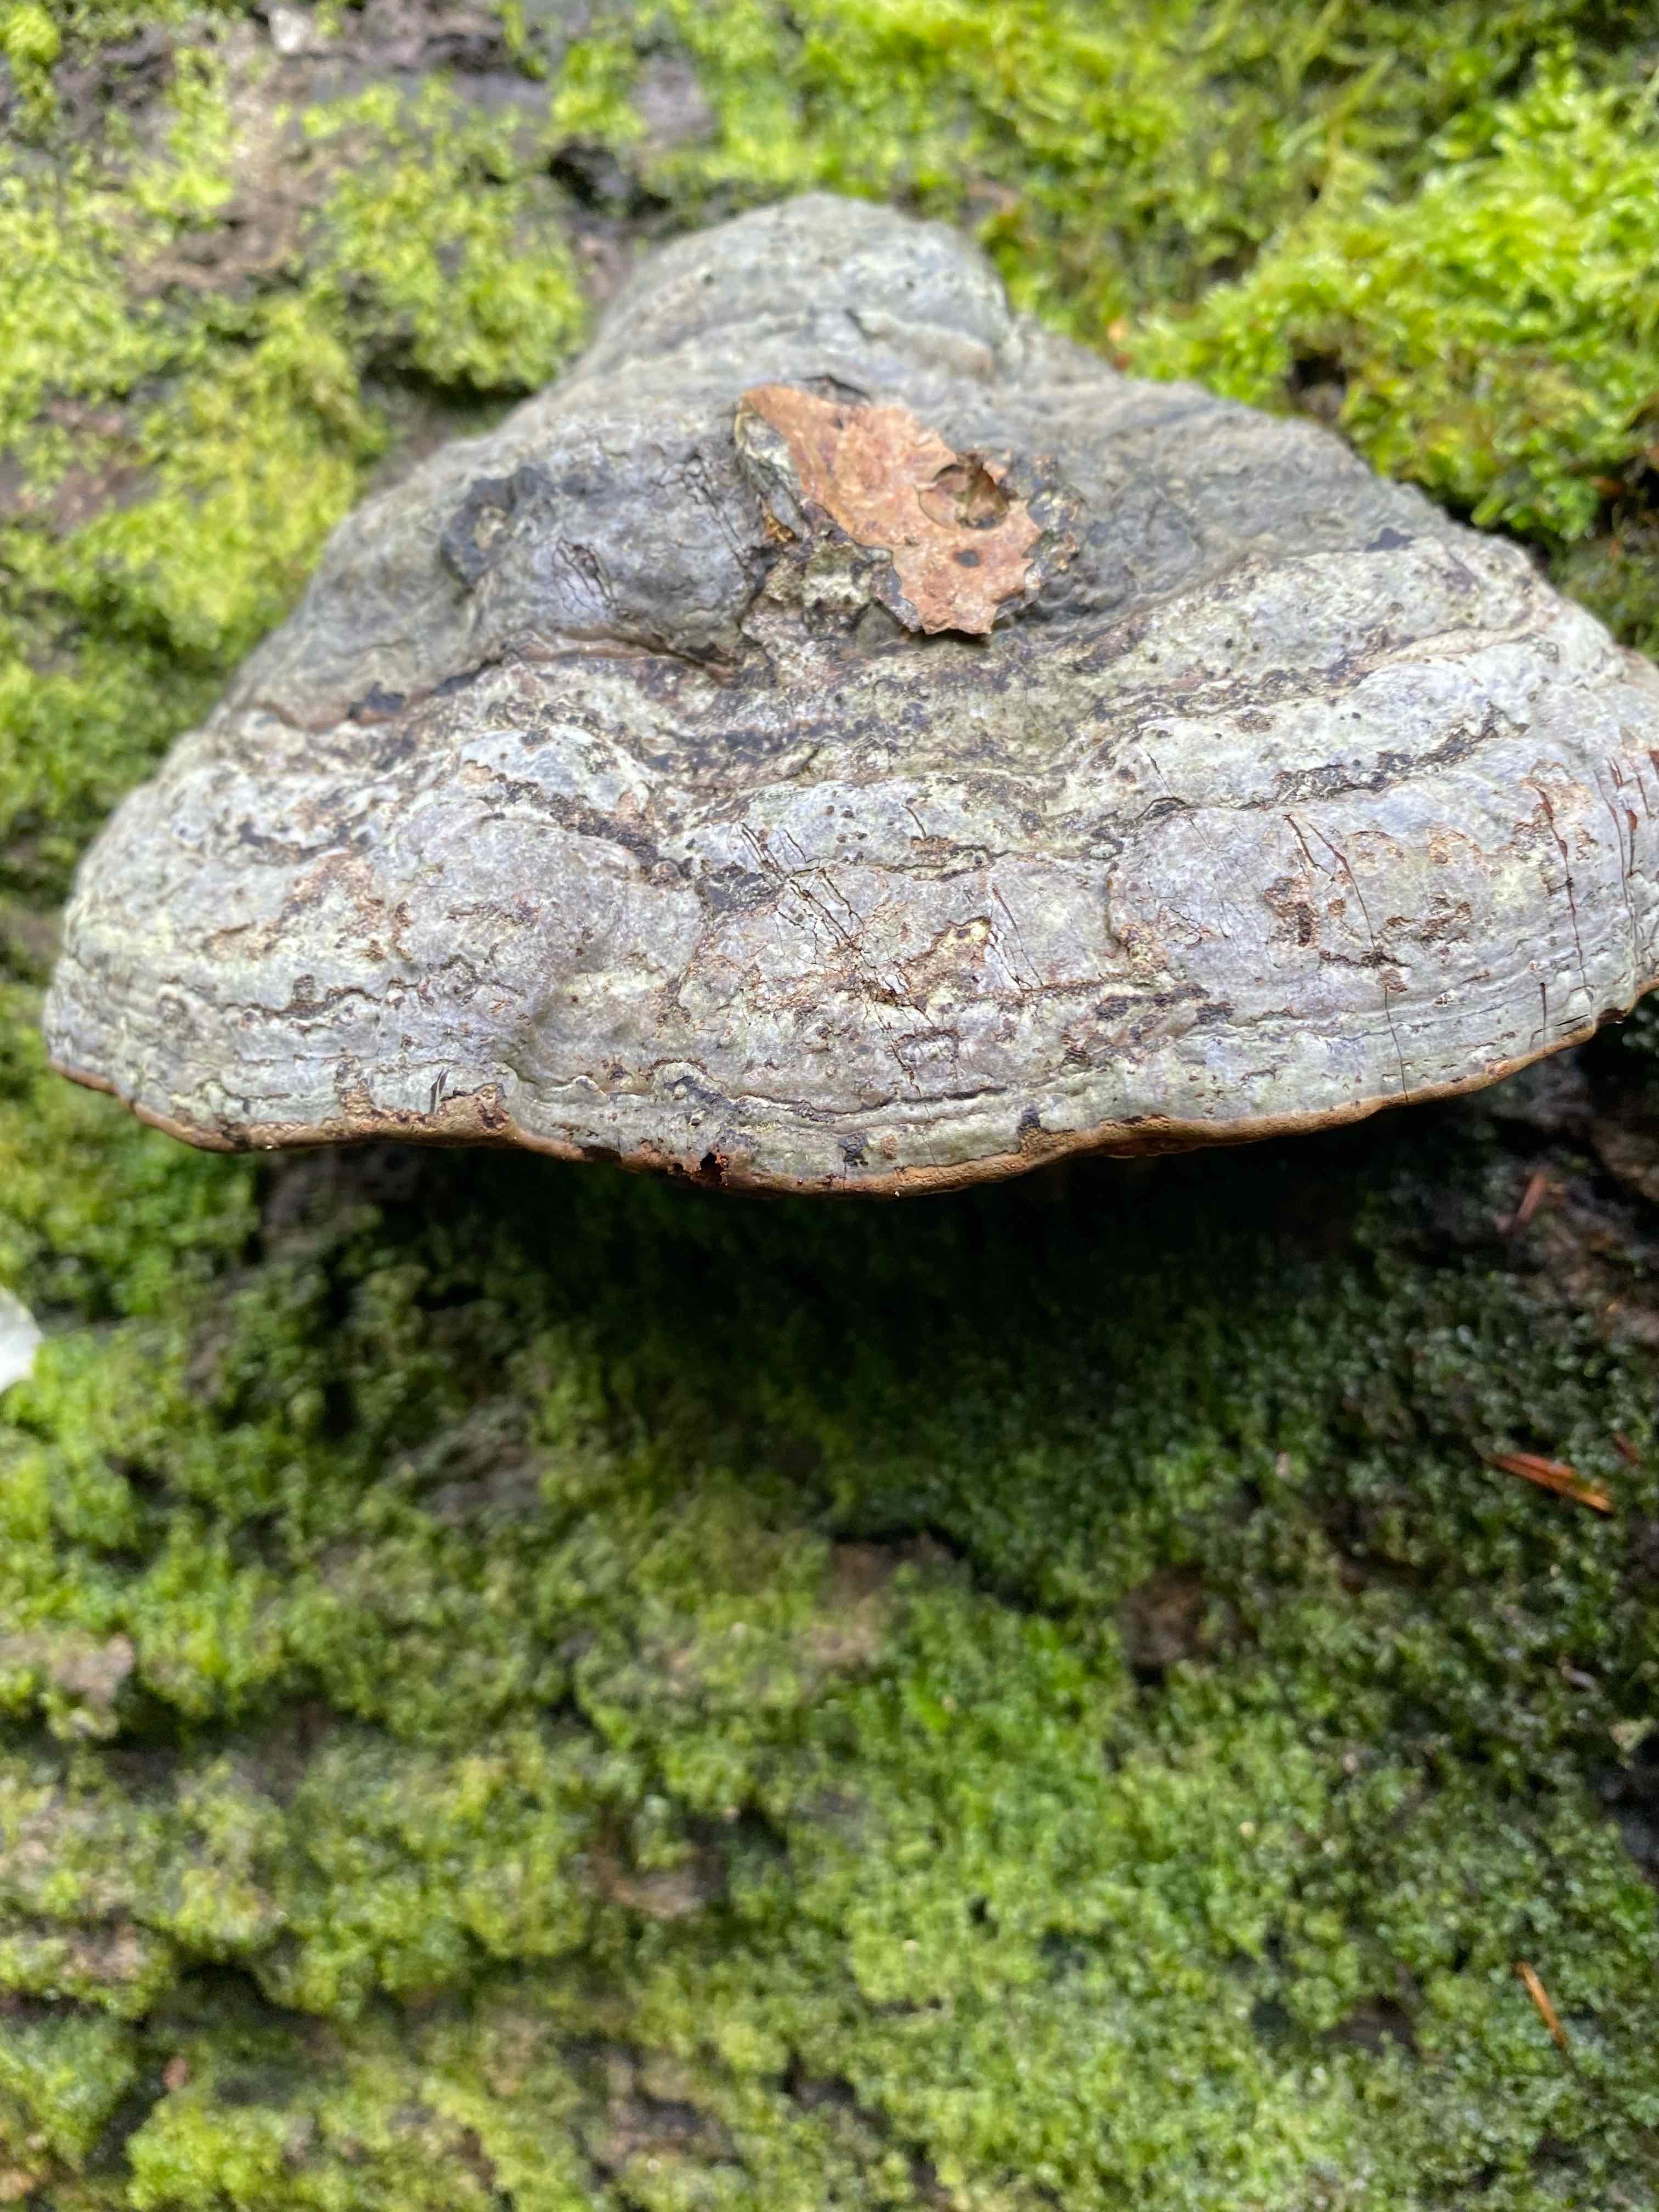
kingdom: Fungi
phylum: Basidiomycota
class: Agaricomycetes
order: Polyporales
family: Polyporaceae
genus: Fomes
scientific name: Fomes fomentarius
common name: tøndersvamp
